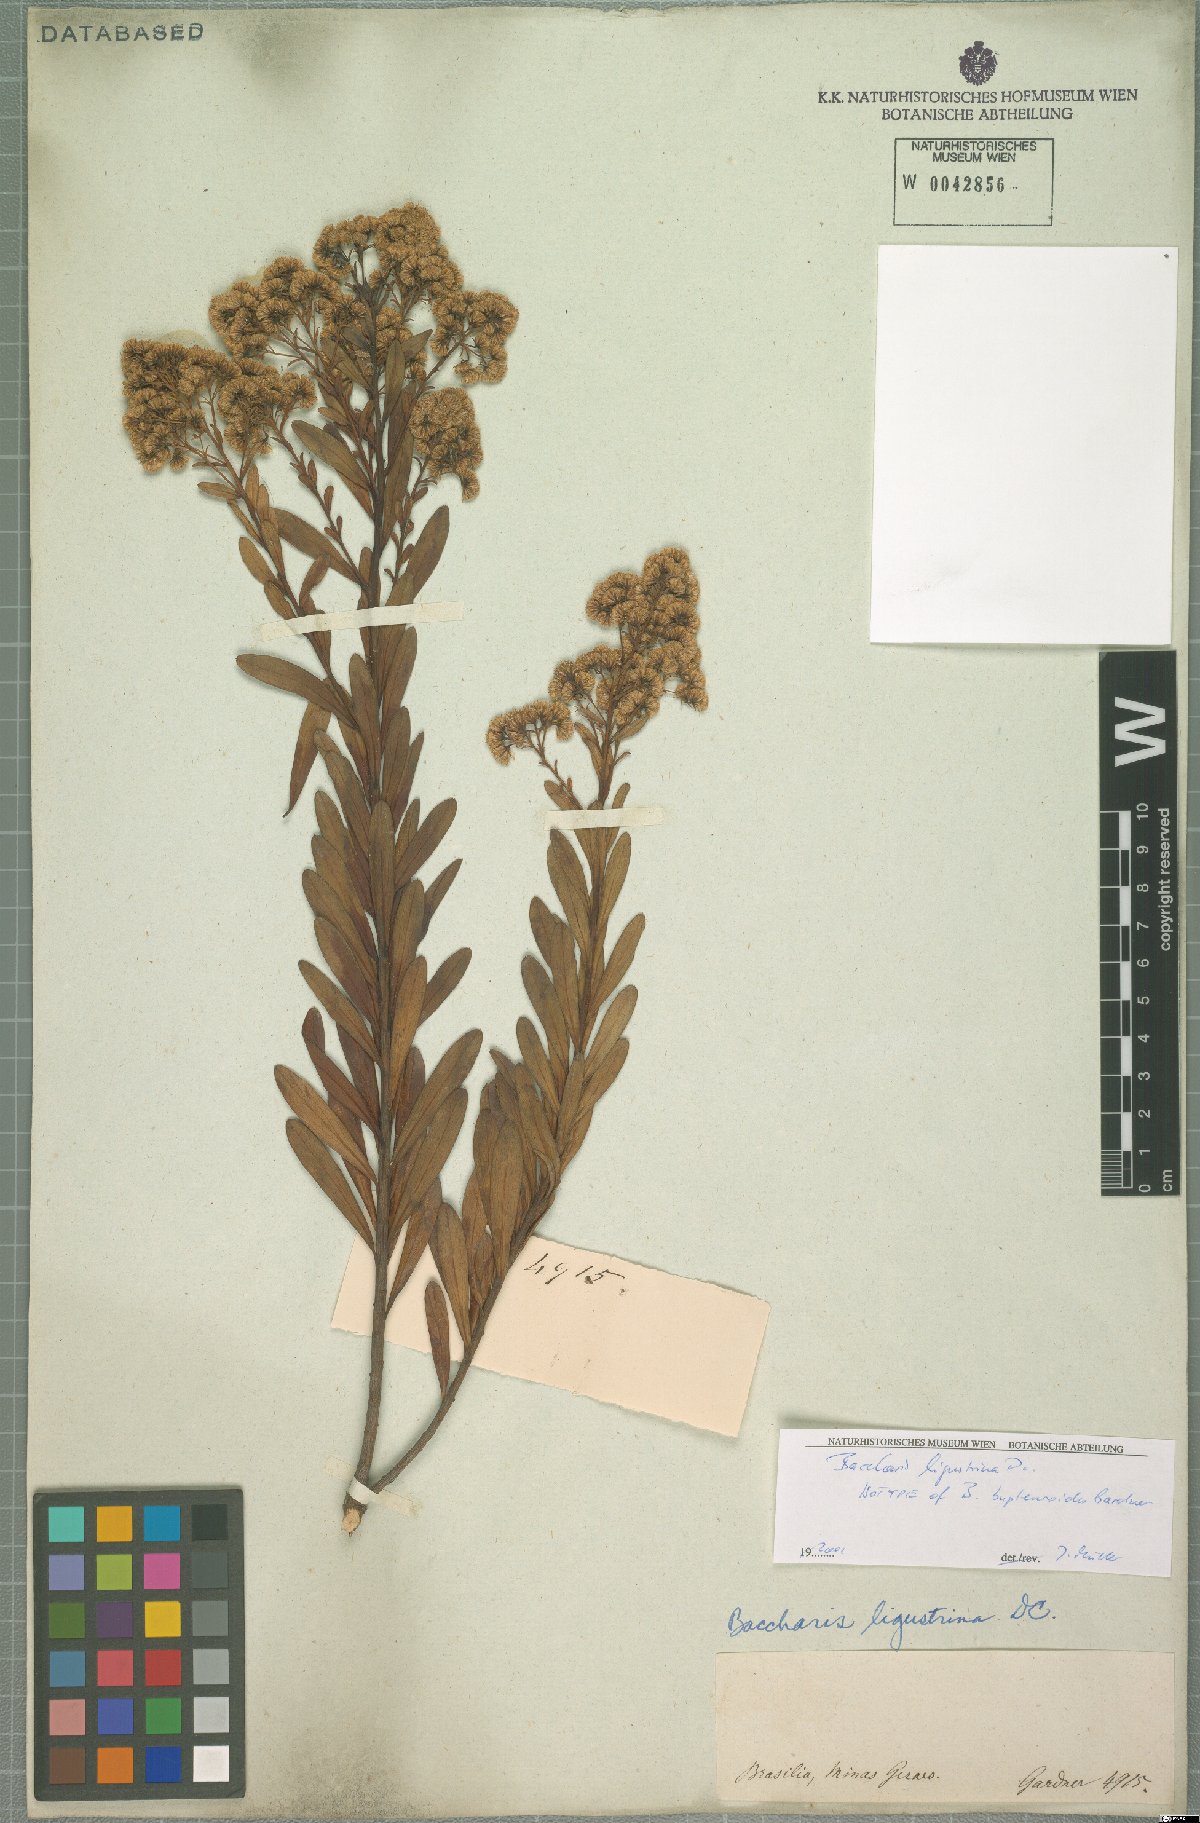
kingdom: Plantae
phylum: Tracheophyta
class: Magnoliopsida
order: Asterales
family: Asteraceae
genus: Baccharis
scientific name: Baccharis ligustrina
